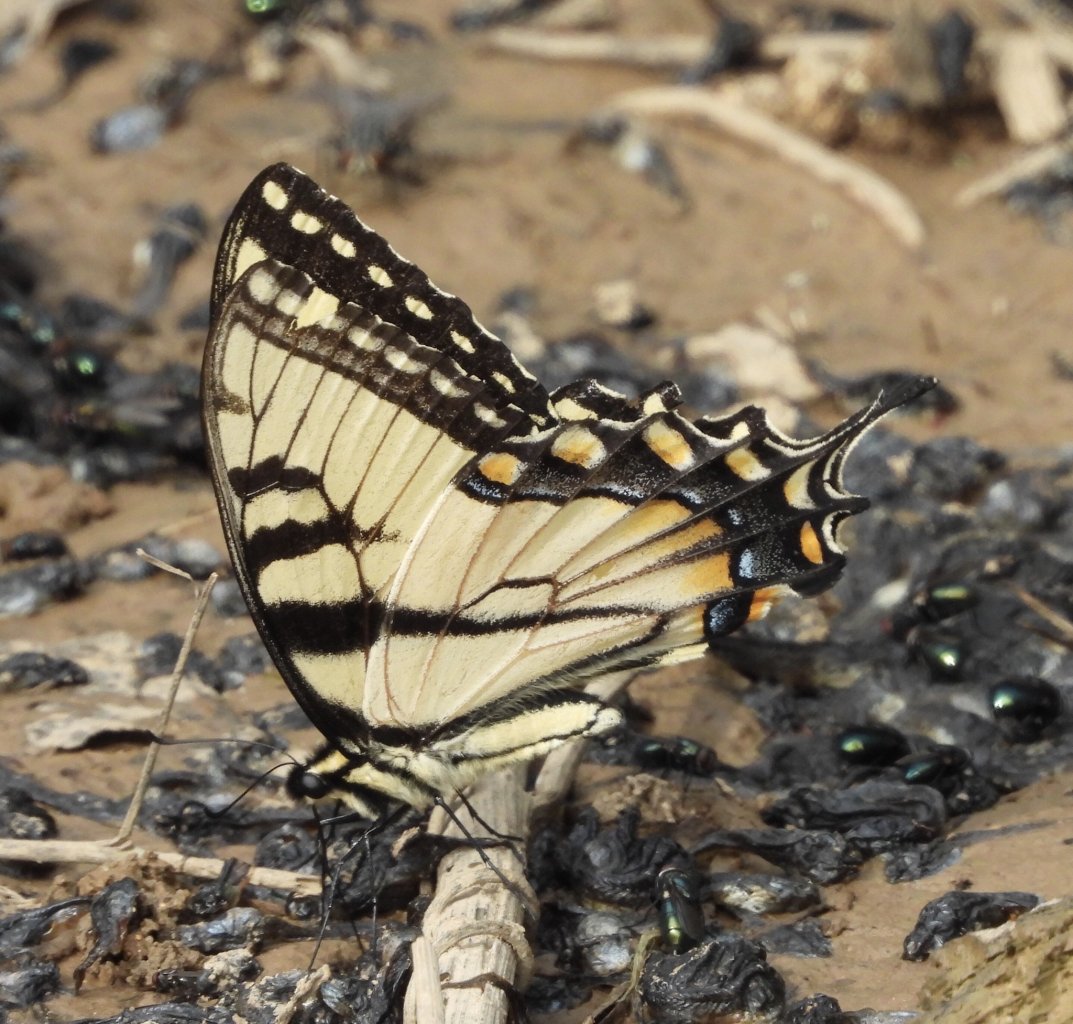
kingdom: Animalia
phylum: Arthropoda
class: Insecta
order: Lepidoptera
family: Papilionidae
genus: Pterourus
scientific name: Pterourus glaucus
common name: Eastern Tiger Swallowtail
